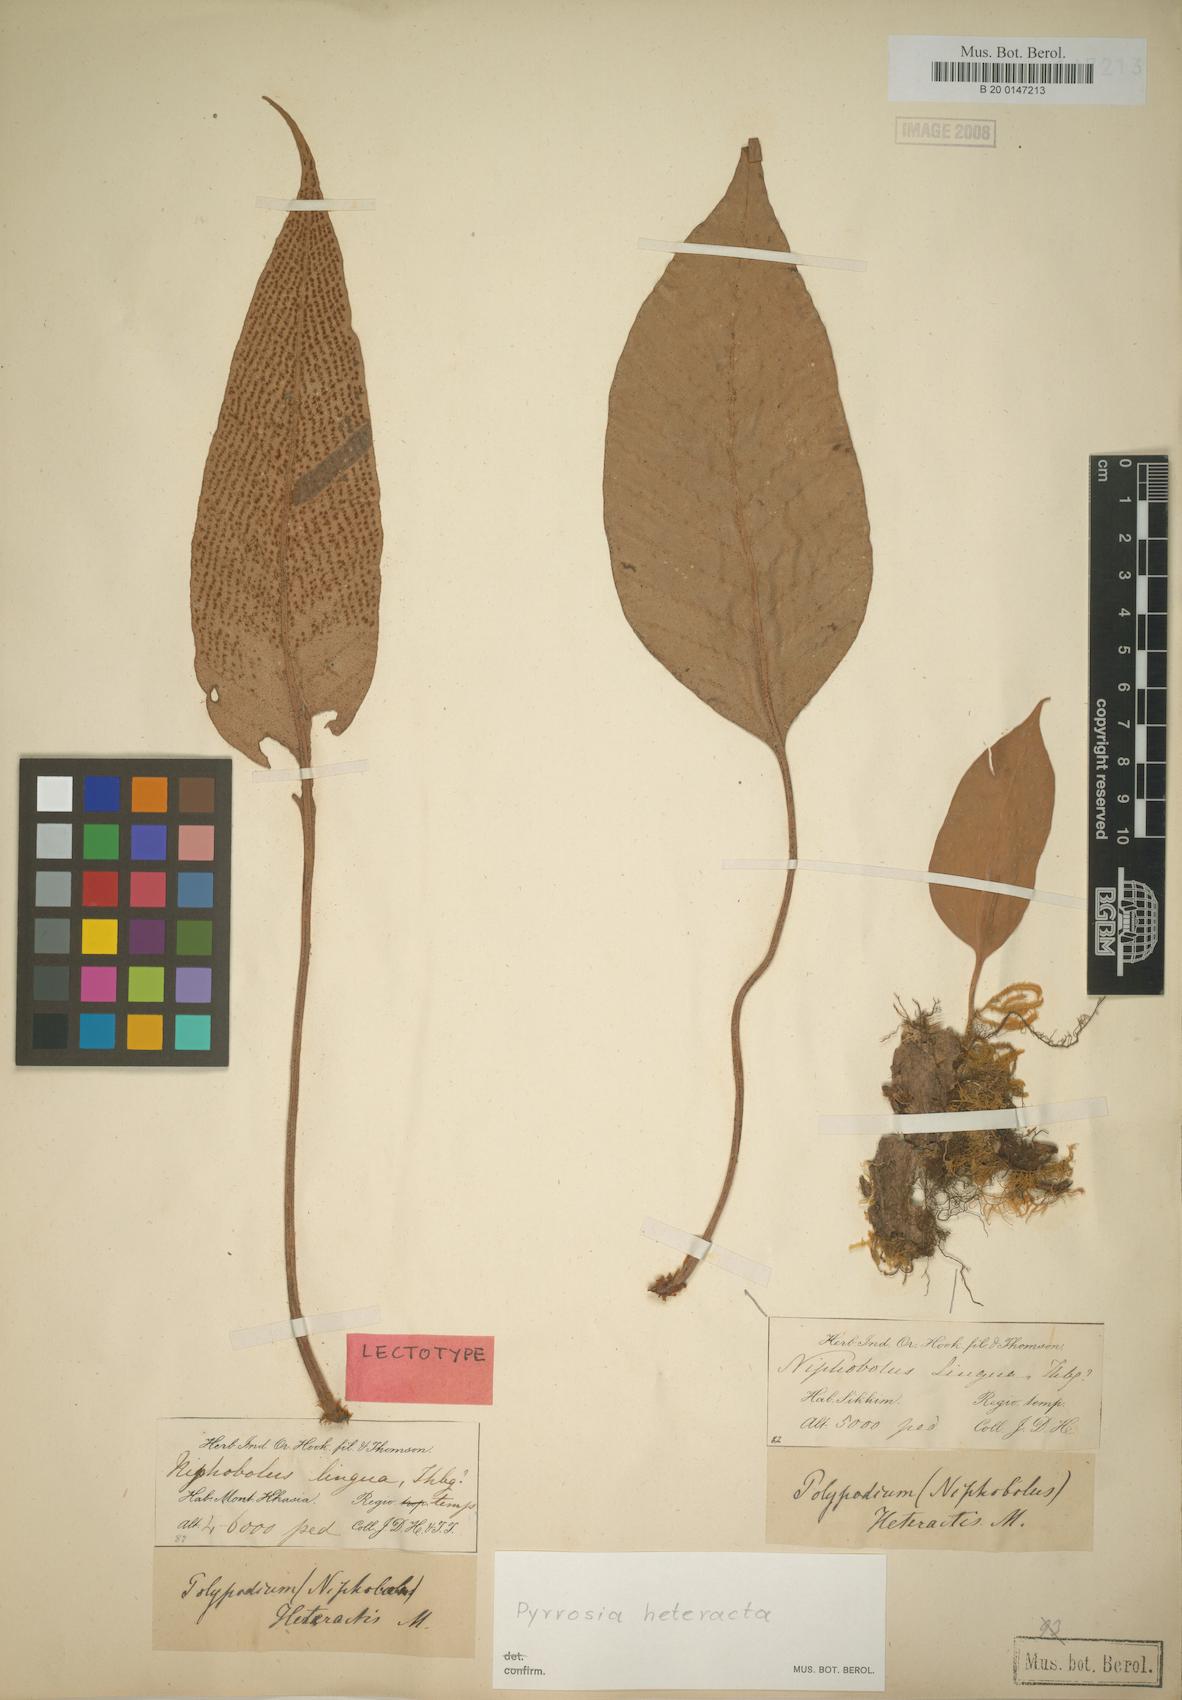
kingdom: Plantae
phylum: Tracheophyta
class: Polypodiopsida
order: Polypodiales
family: Polypodiaceae
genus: Pyrrosia
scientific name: Pyrrosia heteractis
